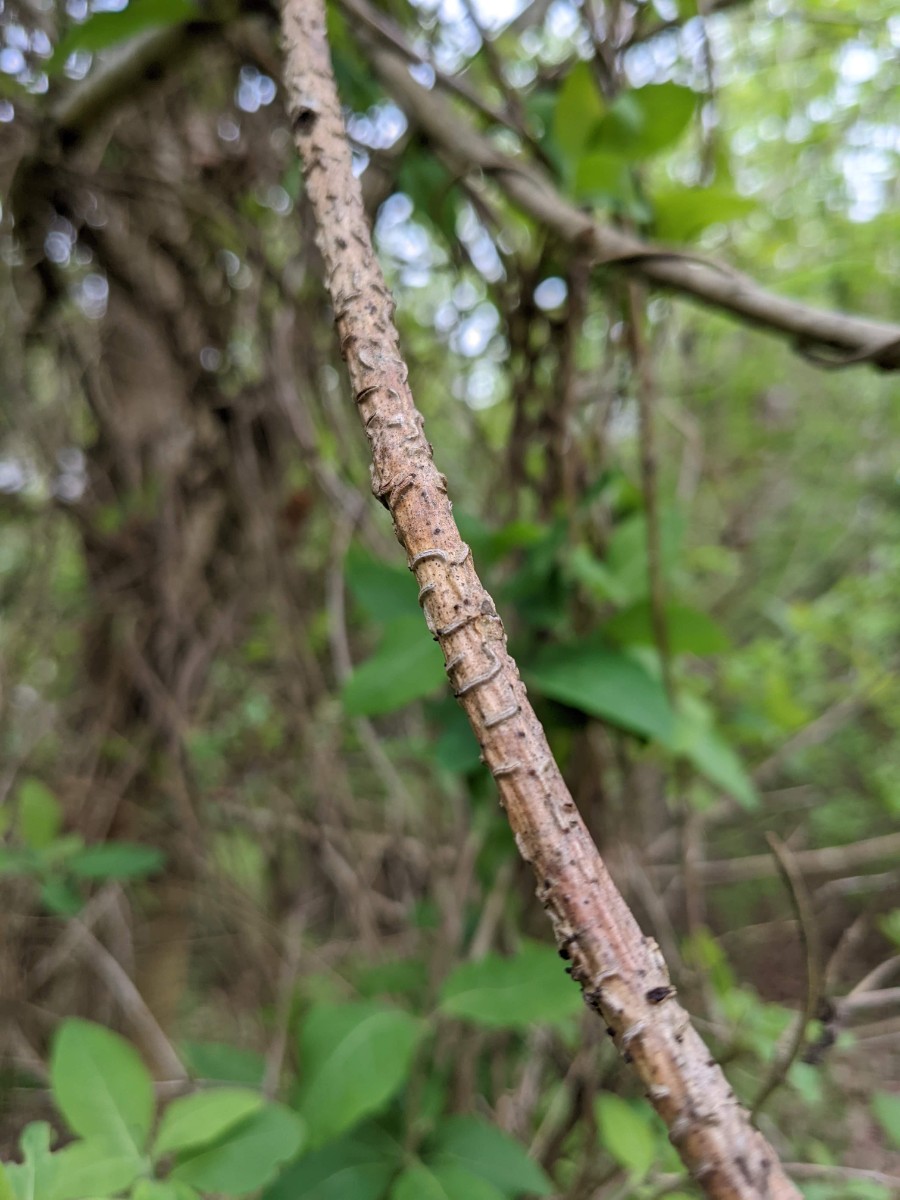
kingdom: Fungi
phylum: Ascomycota
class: Leotiomycetes
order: Rhytismatales
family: Rhytismataceae
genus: Colpoma
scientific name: Colpoma quercinum
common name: ege-sprækkeskive
